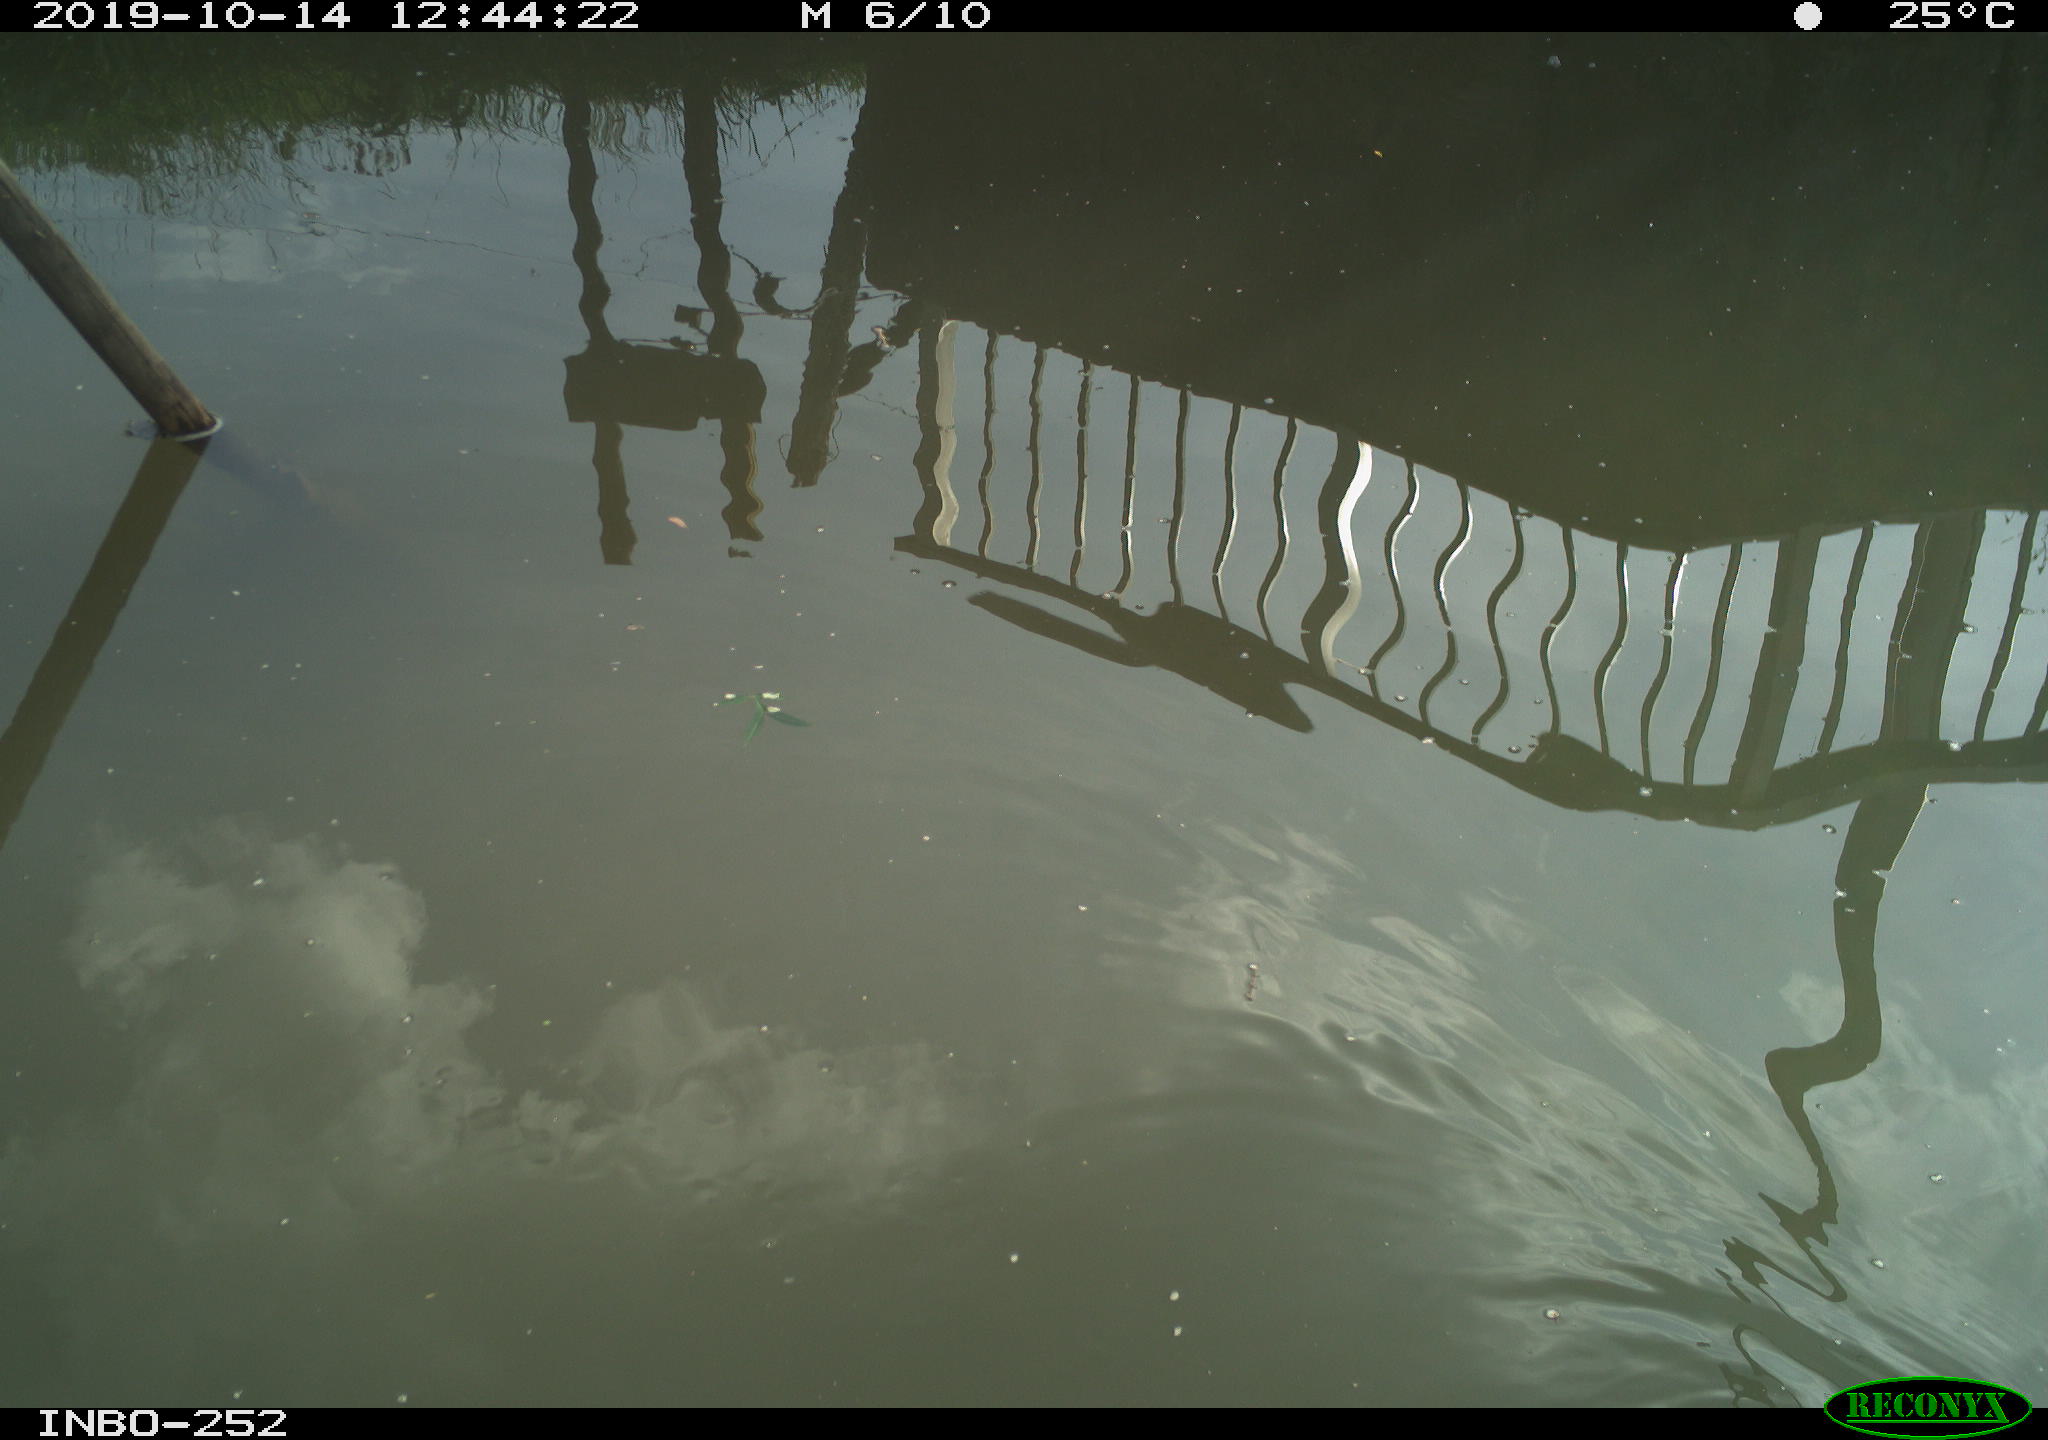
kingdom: Animalia
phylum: Chordata
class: Aves
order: Gruiformes
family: Rallidae
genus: Gallinula
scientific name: Gallinula chloropus
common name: Common moorhen
